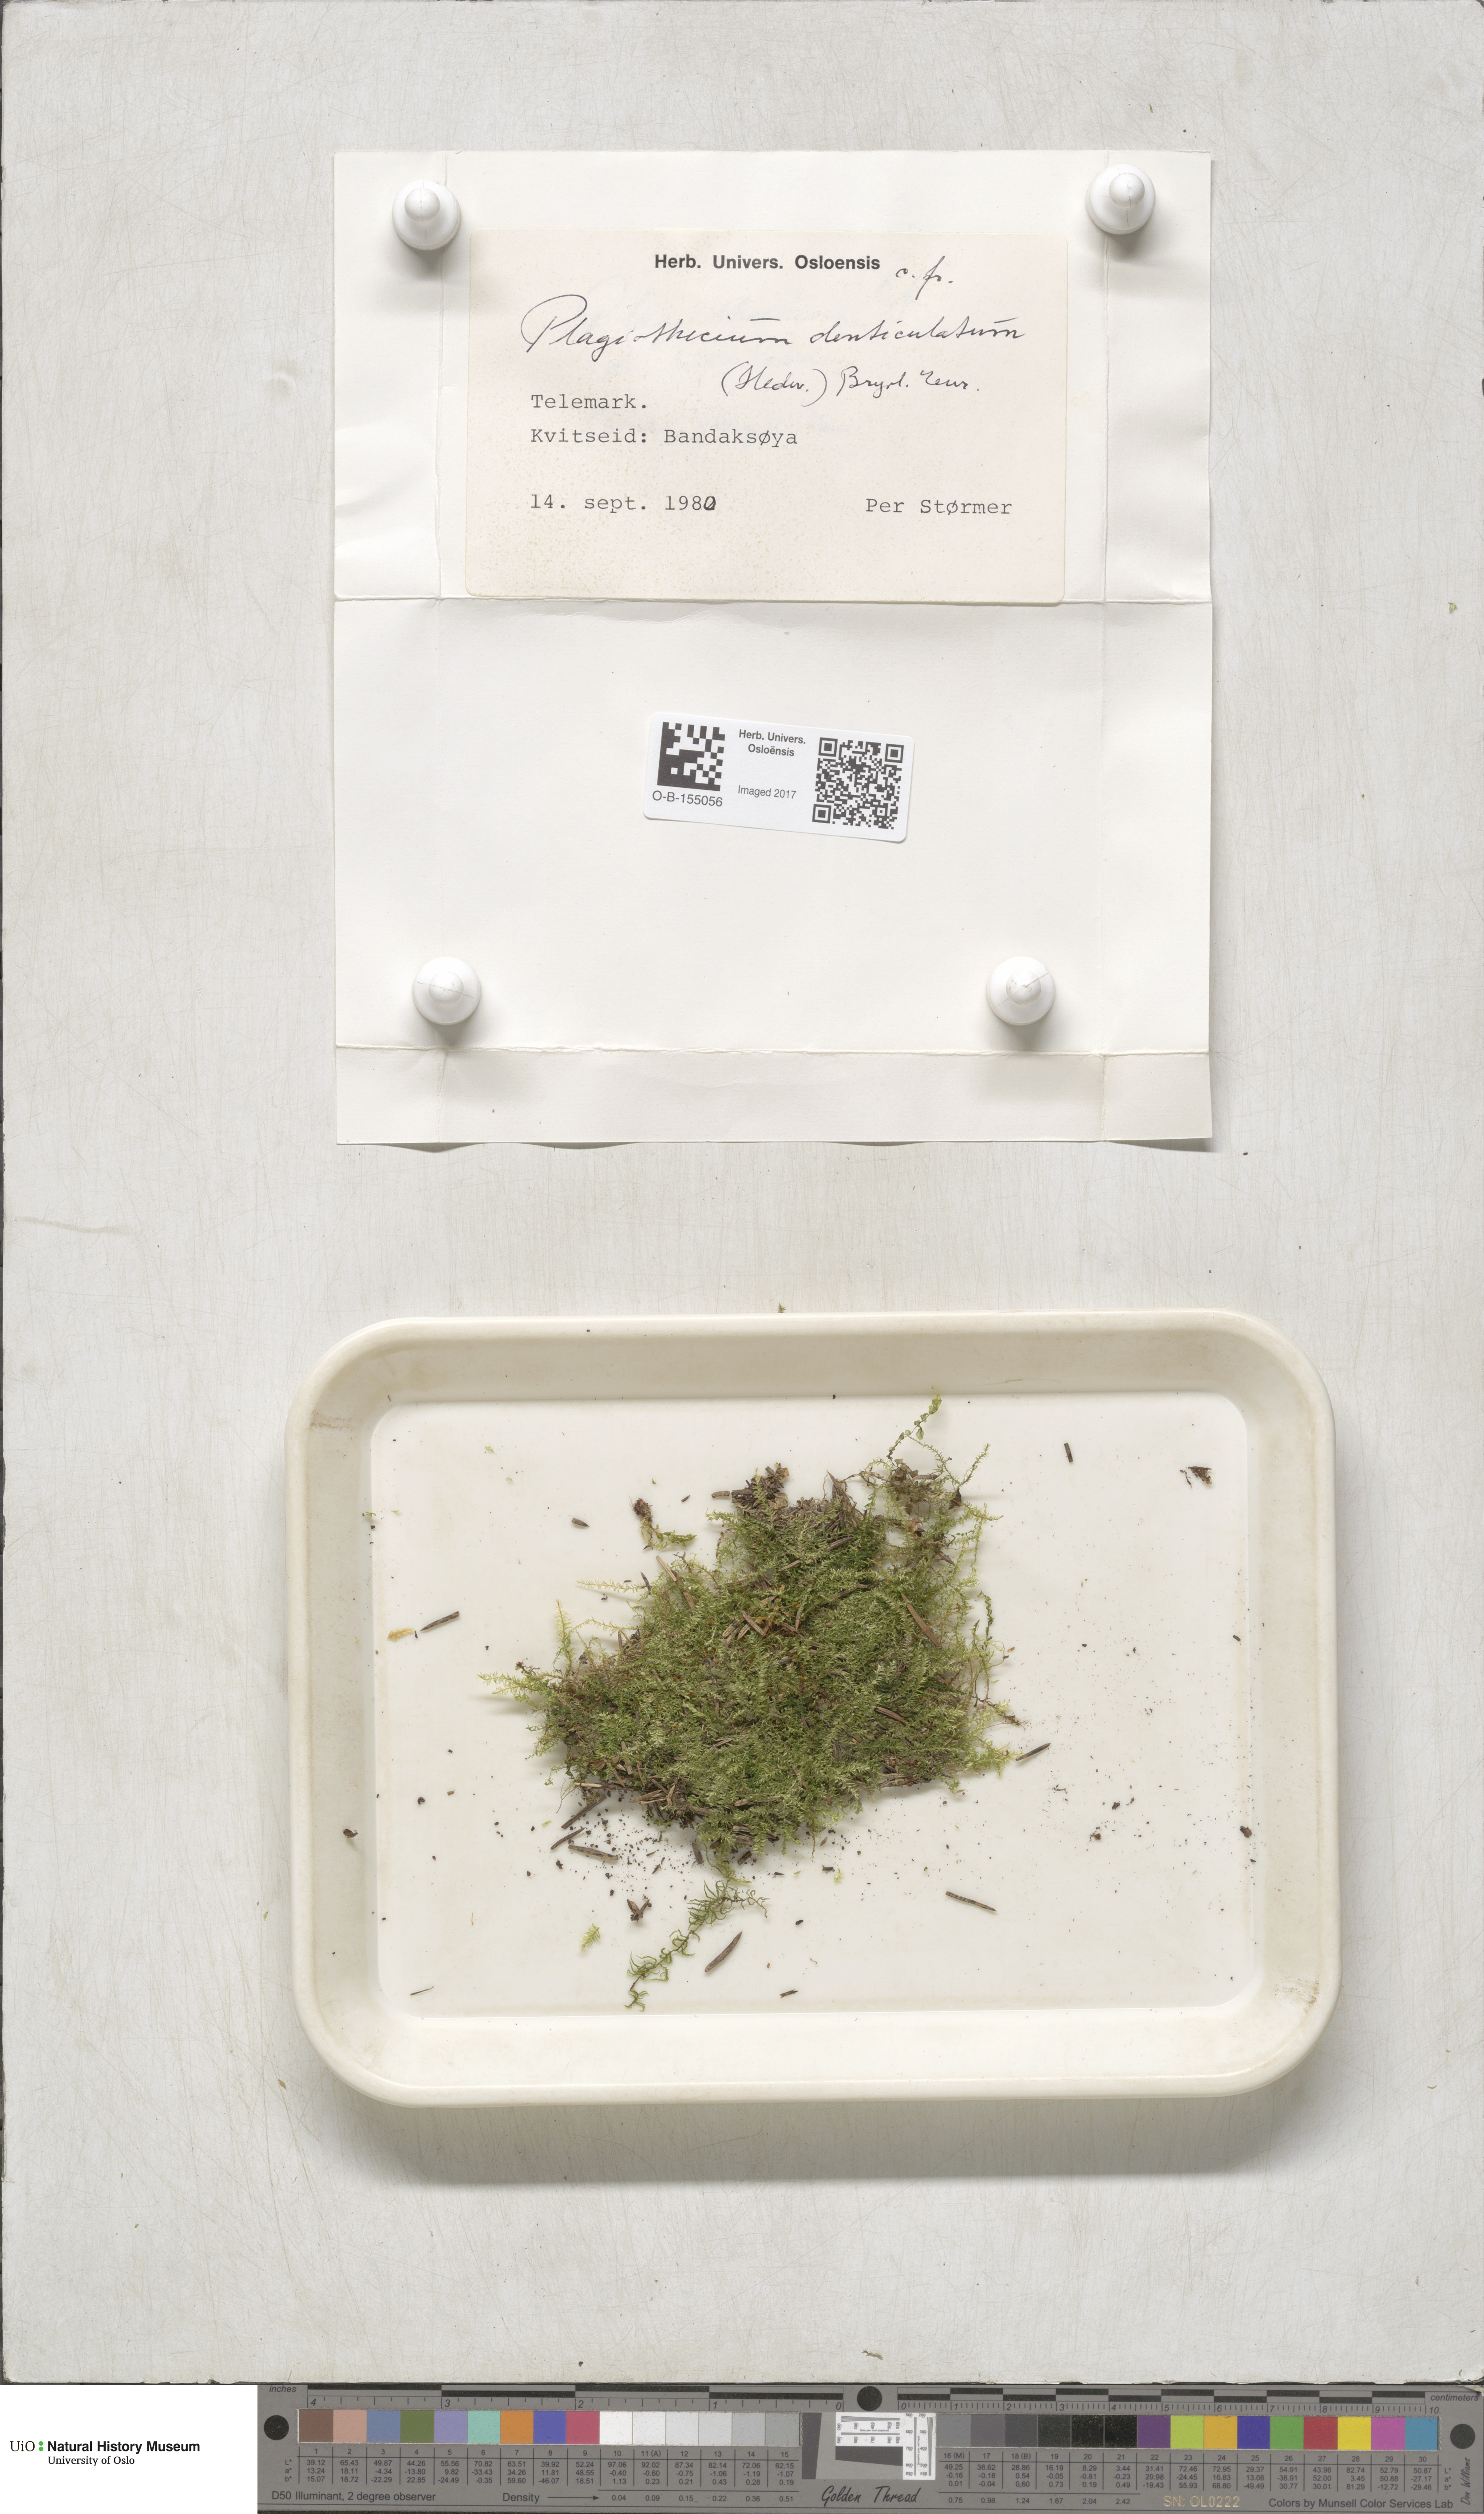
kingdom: Plantae
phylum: Bryophyta
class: Bryopsida
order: Hypnales
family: Plagiotheciaceae
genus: Plagiothecium
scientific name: Plagiothecium denticulatum
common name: Dented silk moss
